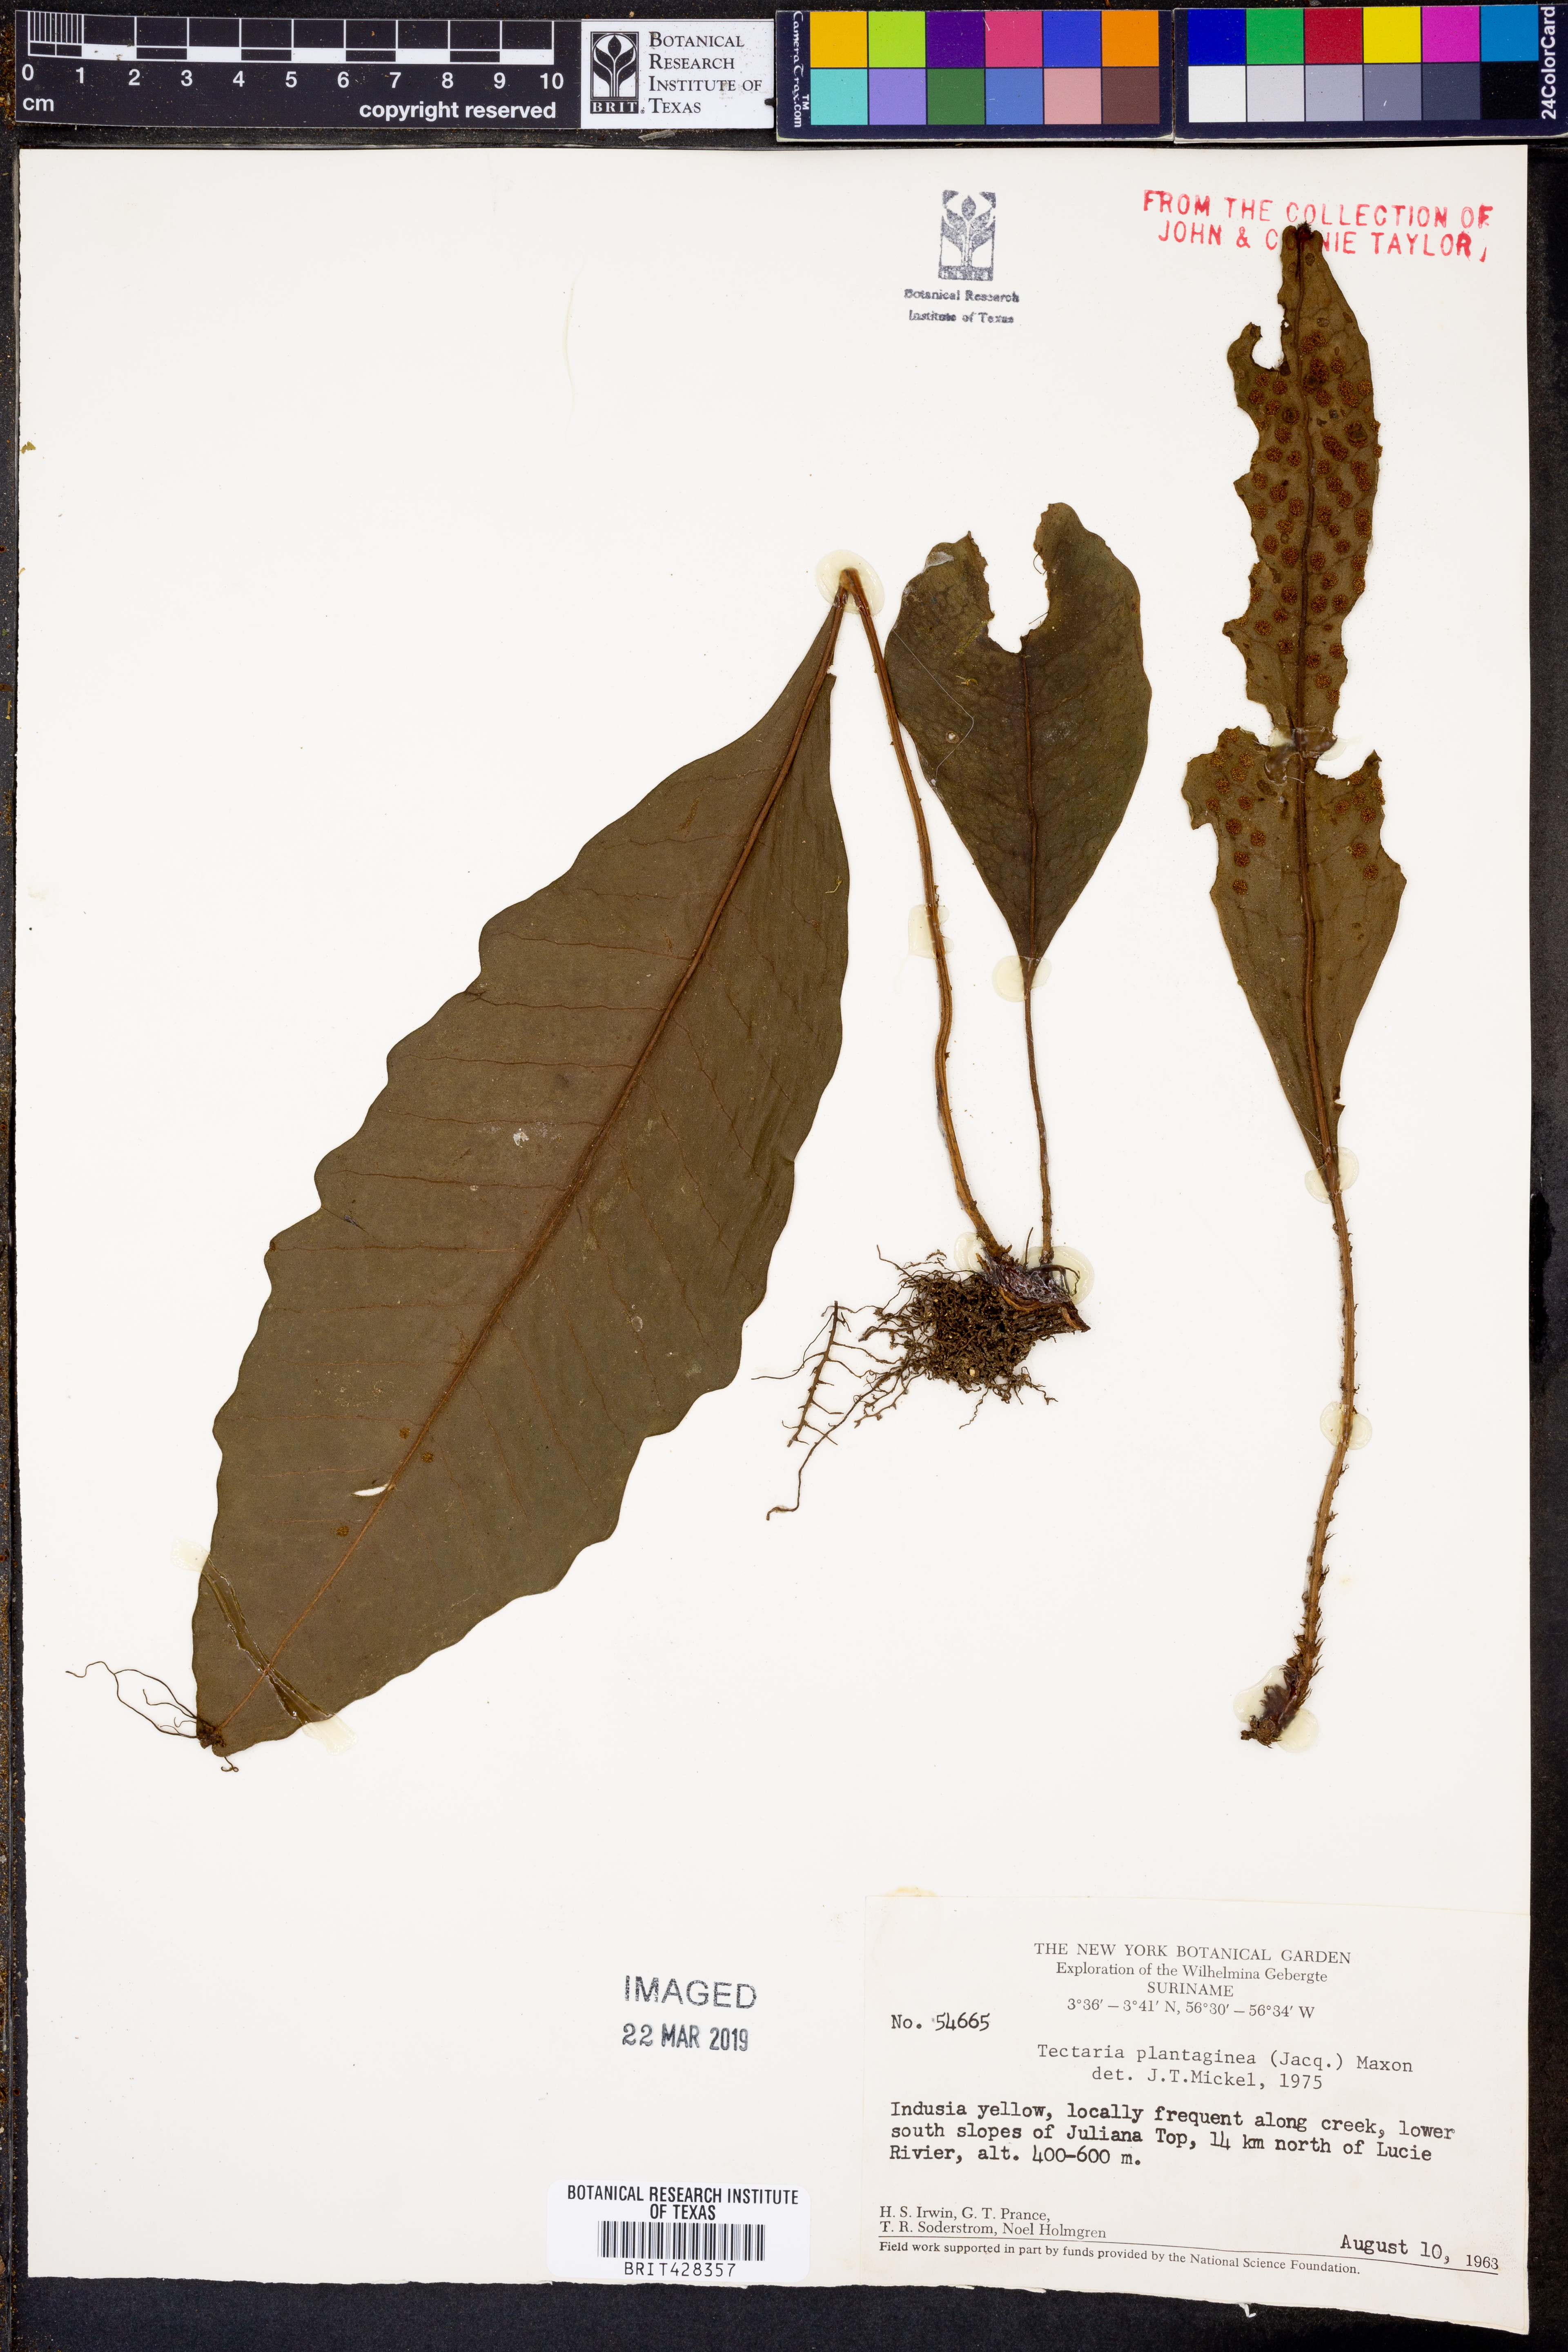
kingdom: Plantae
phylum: Tracheophyta
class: Polypodiopsida
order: Polypodiales
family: Lomariopsidaceae
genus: Dracoglossum
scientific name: Dracoglossum plantagineum
